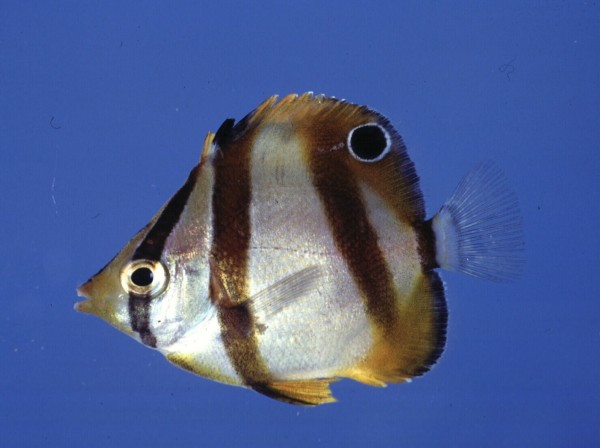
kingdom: Animalia
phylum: Chordata
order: Perciformes
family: Chaetodontidae
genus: Chaetodon
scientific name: Chaetodon marleyi
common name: Doubledash butterflyfish
